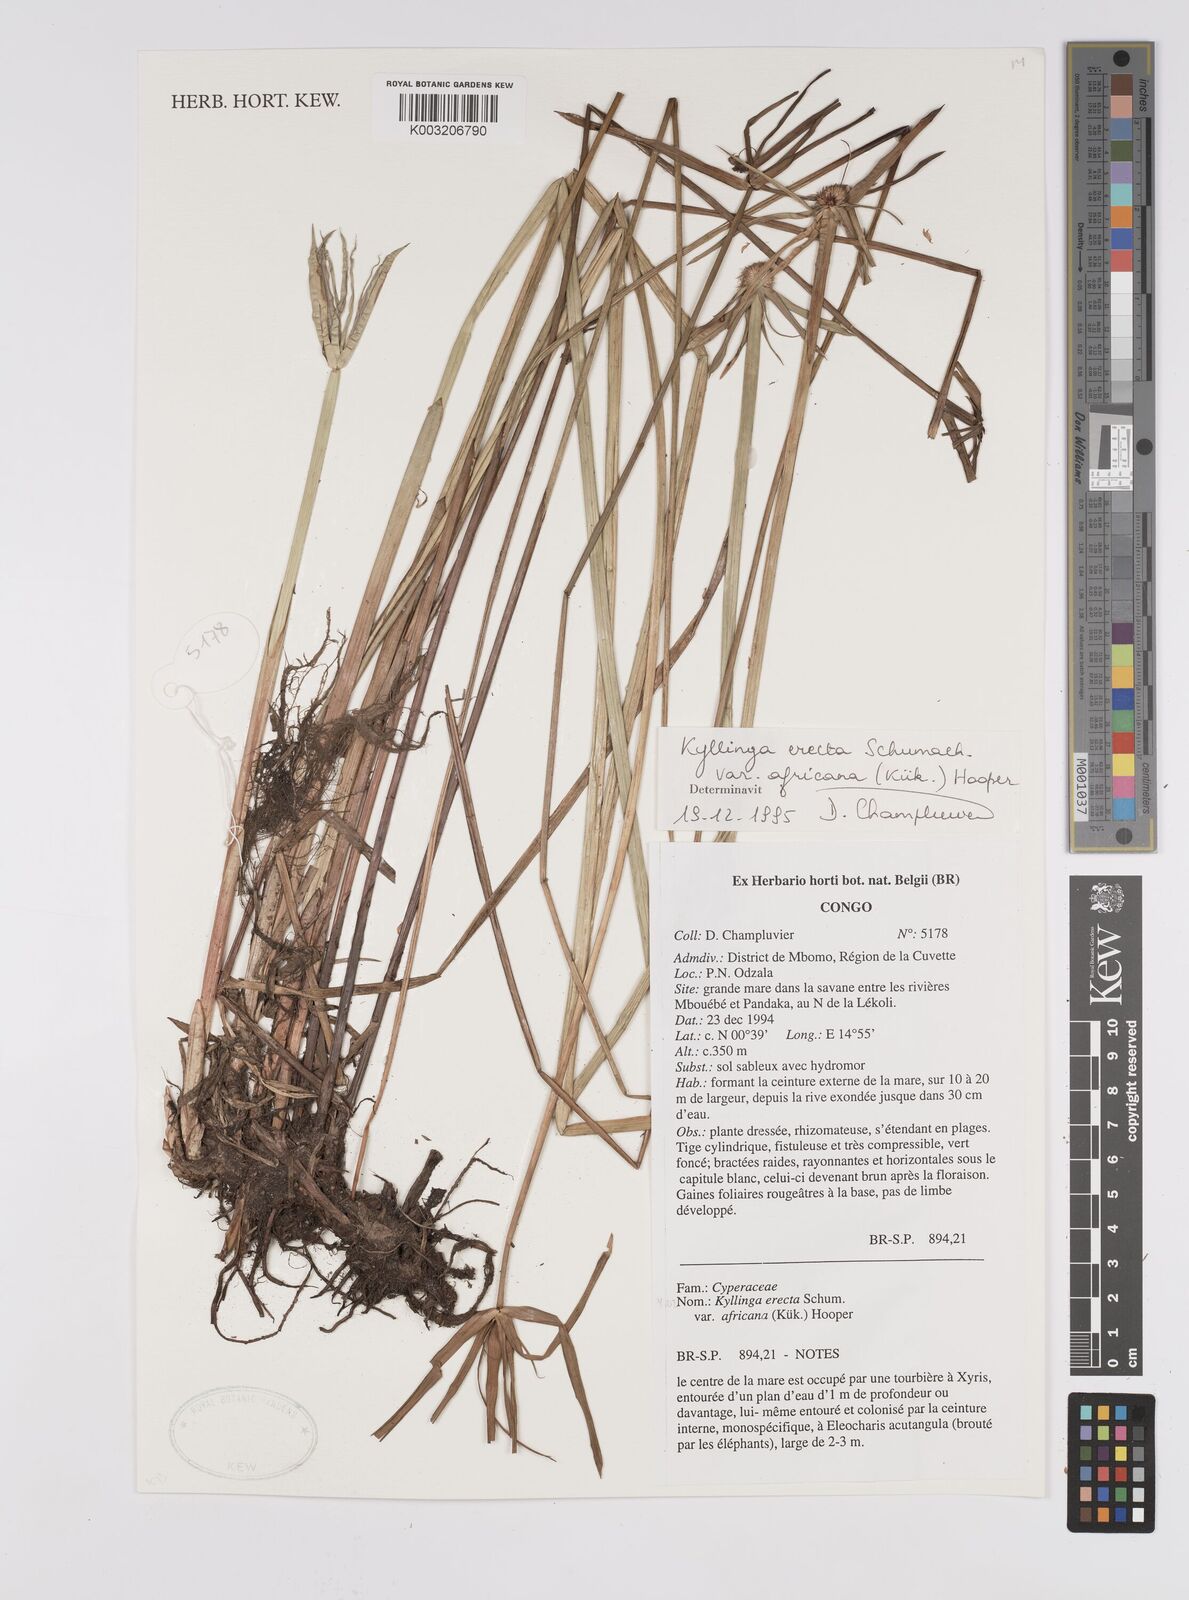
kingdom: Plantae
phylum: Tracheophyta
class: Liliopsida
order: Poales
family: Cyperaceae
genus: Cyperus
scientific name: Cyperus
